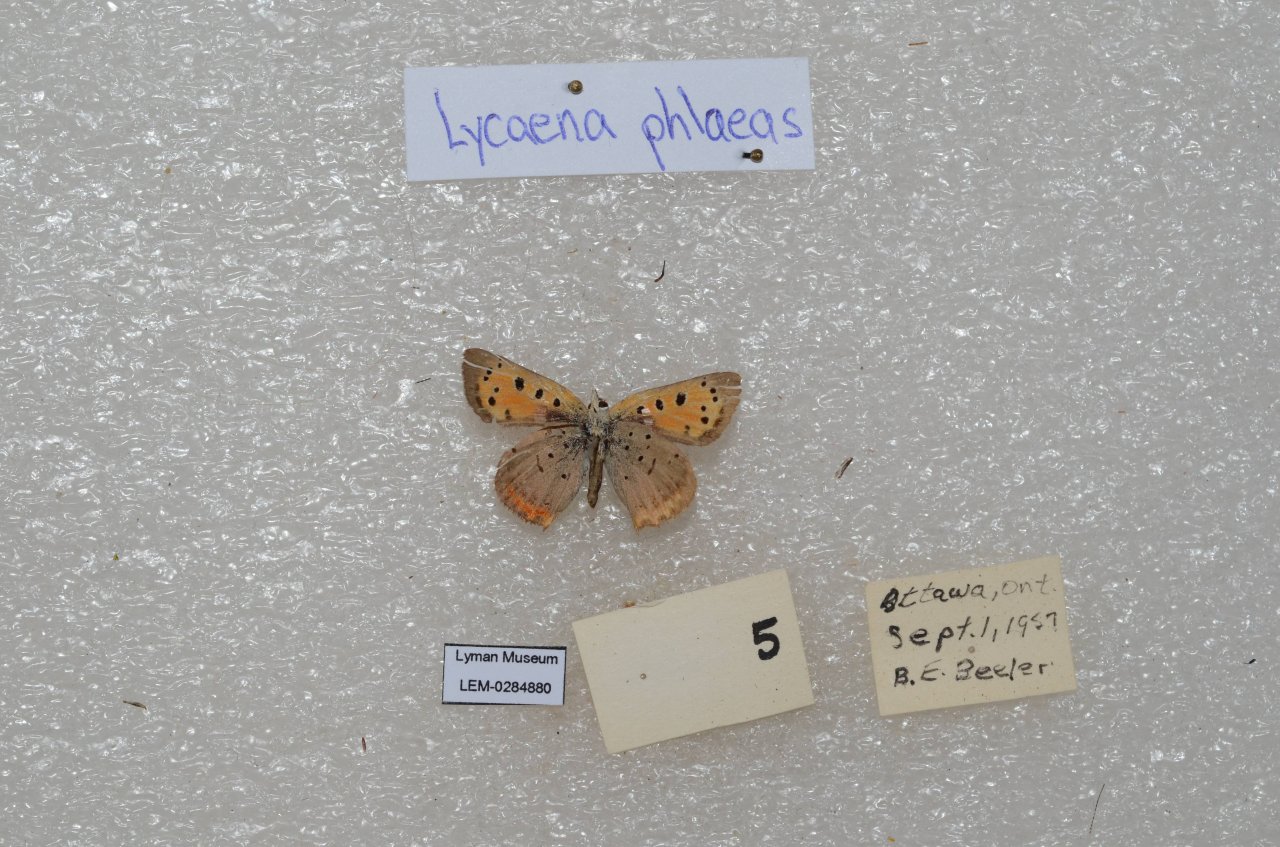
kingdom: Animalia
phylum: Arthropoda
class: Insecta
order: Lepidoptera
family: Lycaenidae
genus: Lycaena
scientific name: Lycaena phlaeas
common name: American Copper
